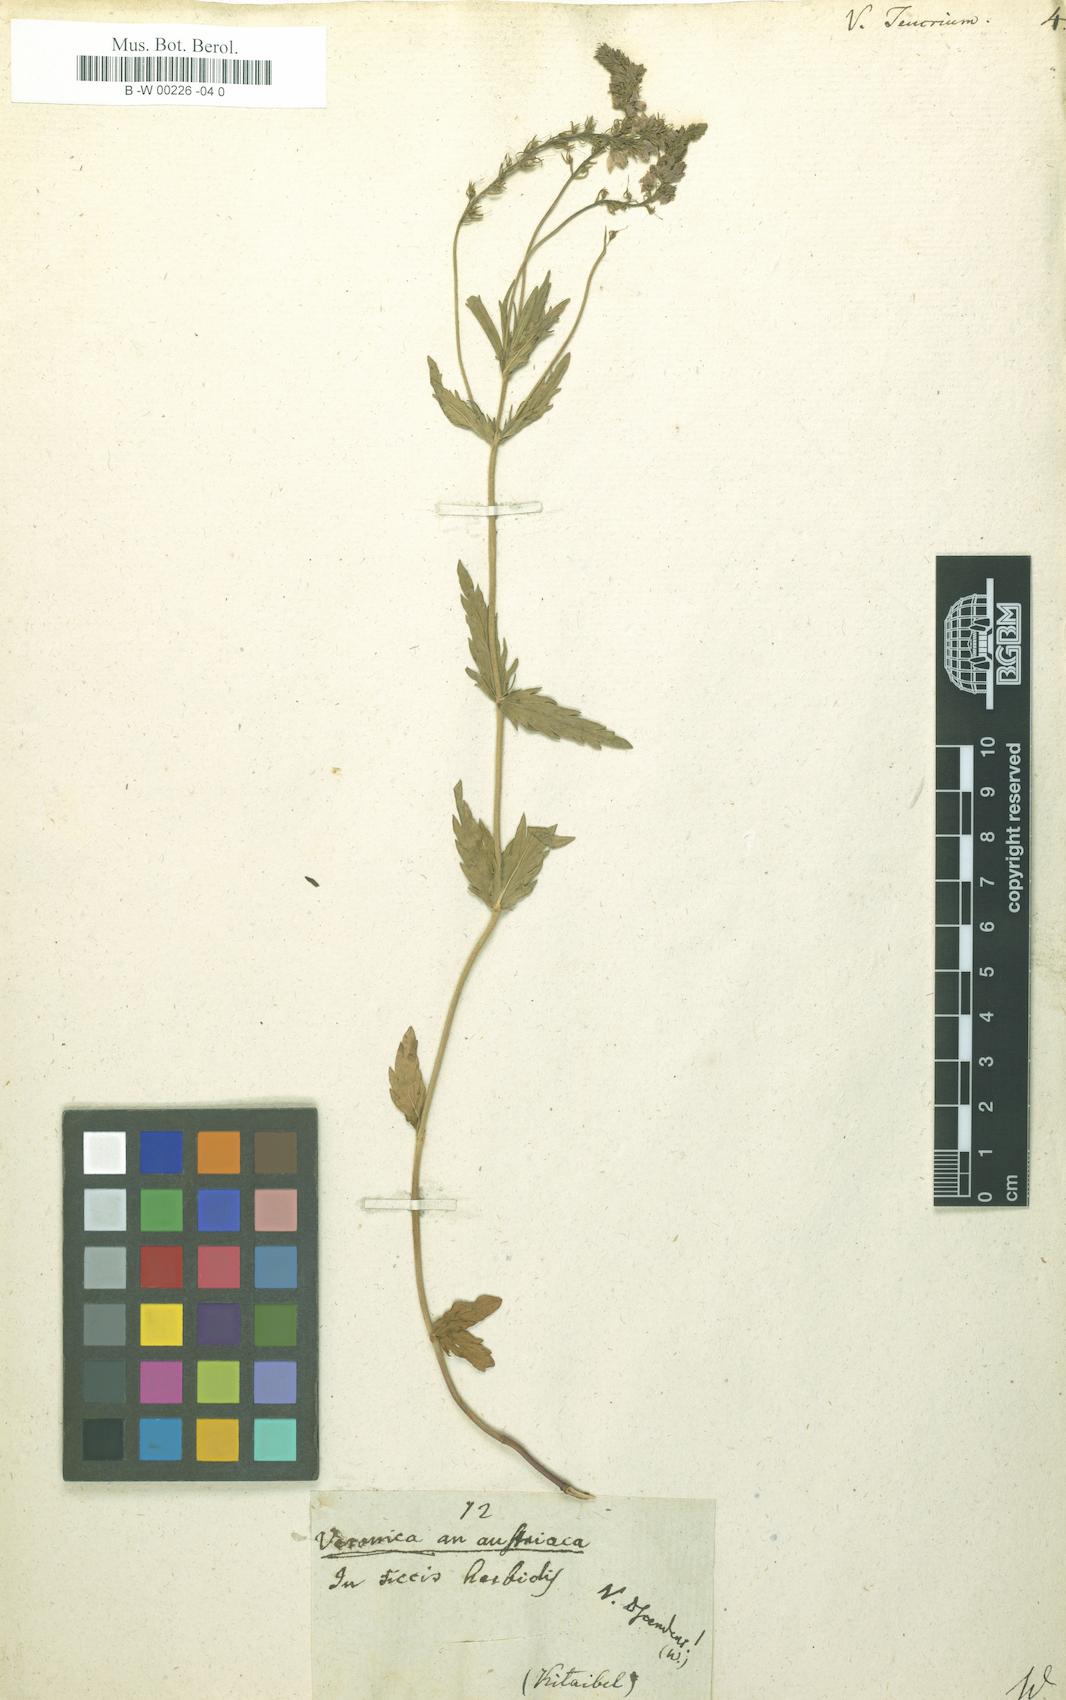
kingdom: Plantae
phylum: Tracheophyta
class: Magnoliopsida
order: Lamiales
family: Plantaginaceae
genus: Veronica
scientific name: Veronica teucrium
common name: Large speedwell
